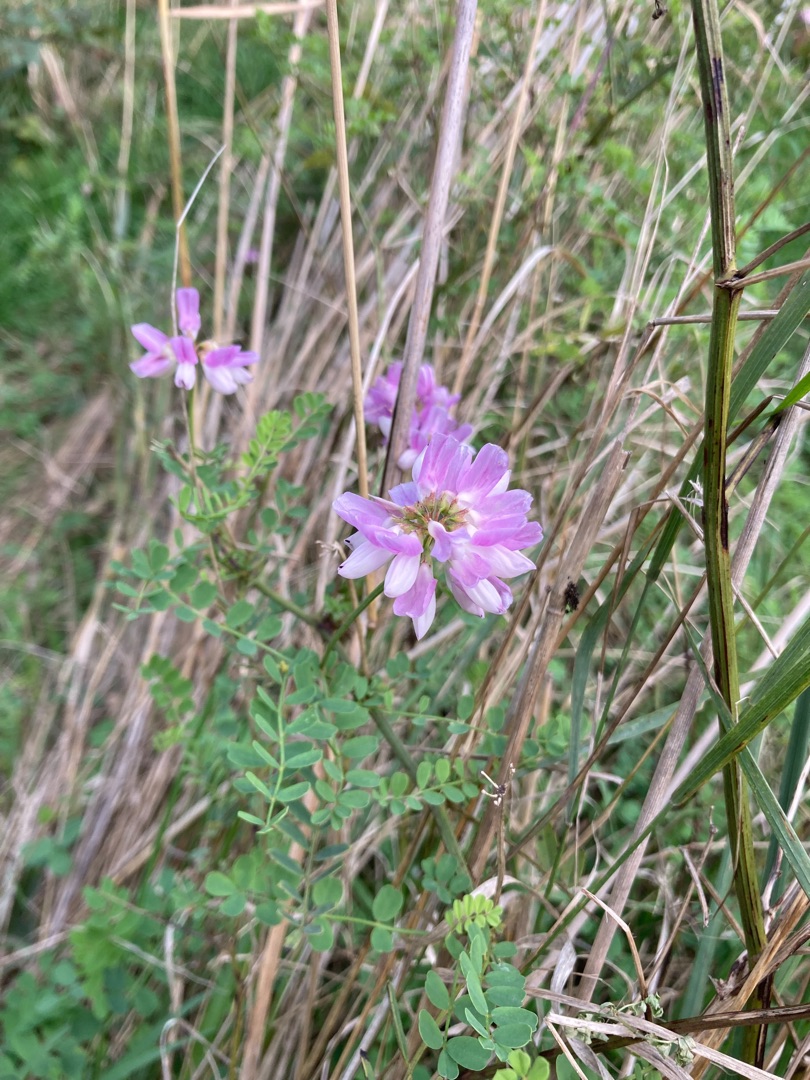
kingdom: Plantae
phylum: Tracheophyta
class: Magnoliopsida
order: Fabales
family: Fabaceae
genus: Coronilla
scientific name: Coronilla varia
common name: Giftig kronvikke
